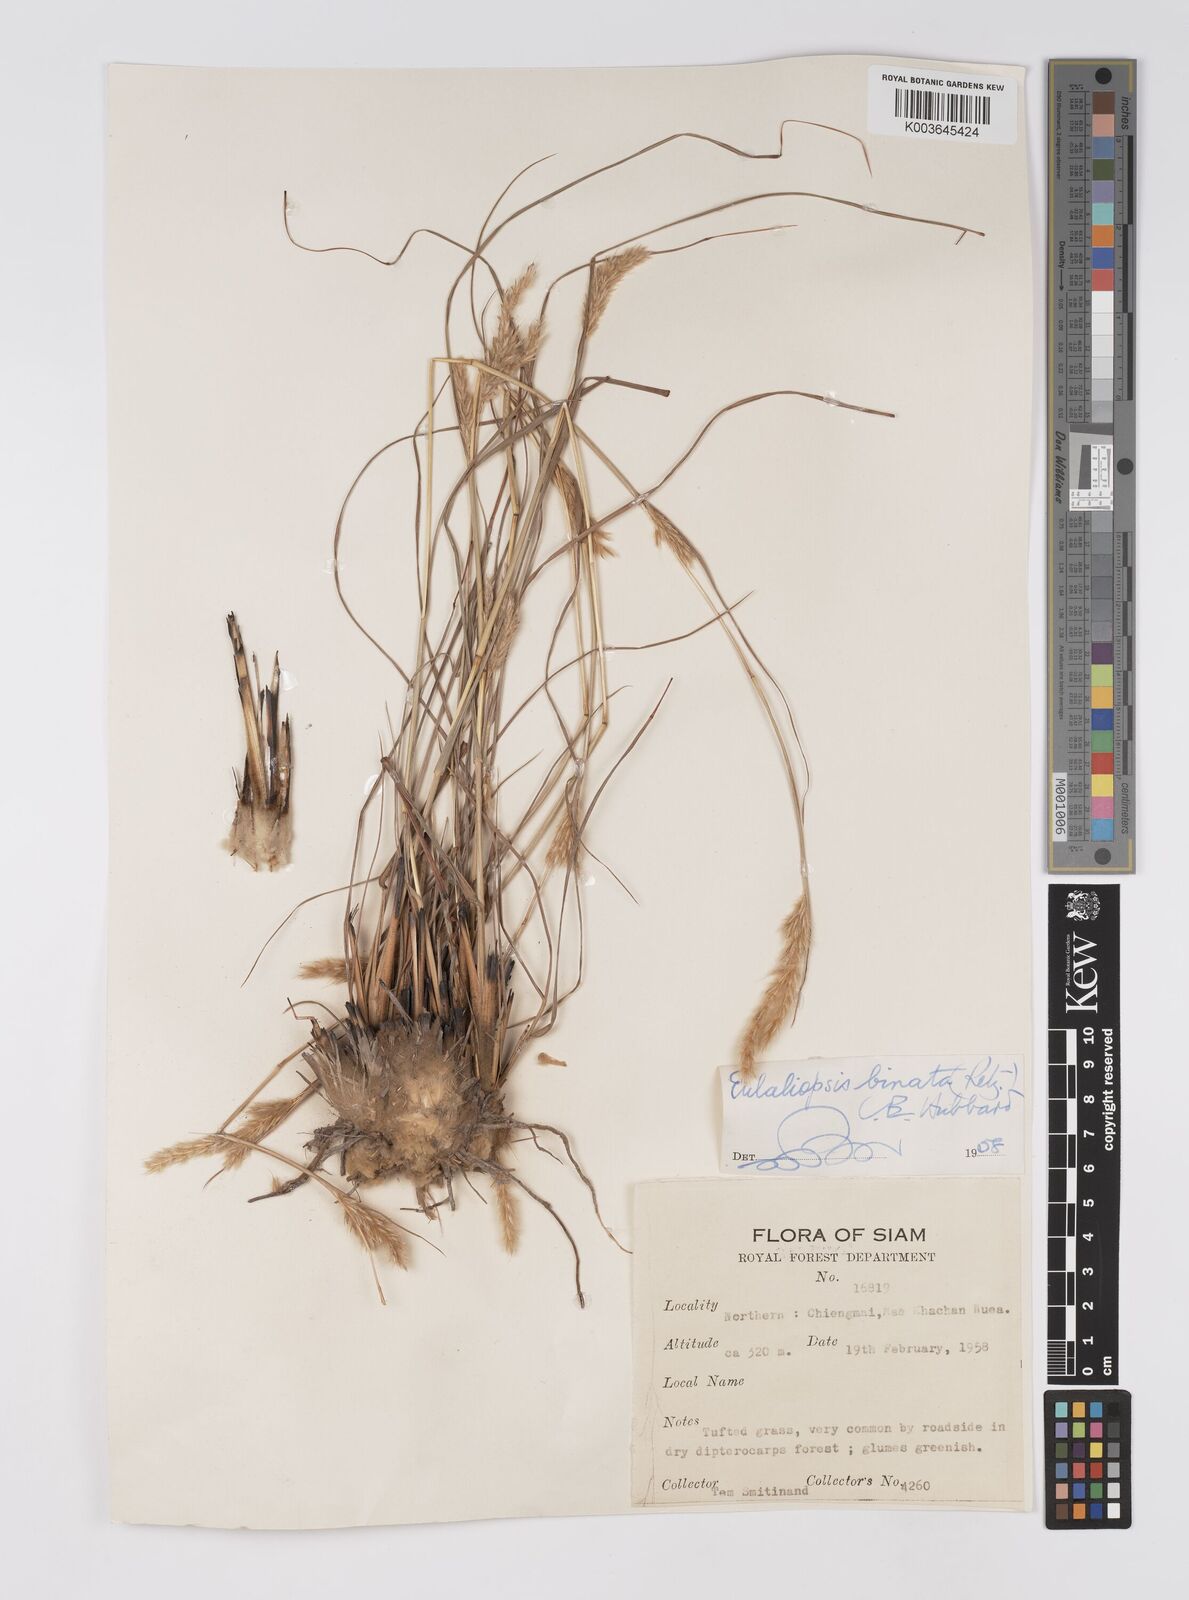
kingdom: Plantae
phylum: Tracheophyta
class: Liliopsida
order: Poales
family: Poaceae
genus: Eulaliopsis
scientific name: Eulaliopsis binata
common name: Baib grass
